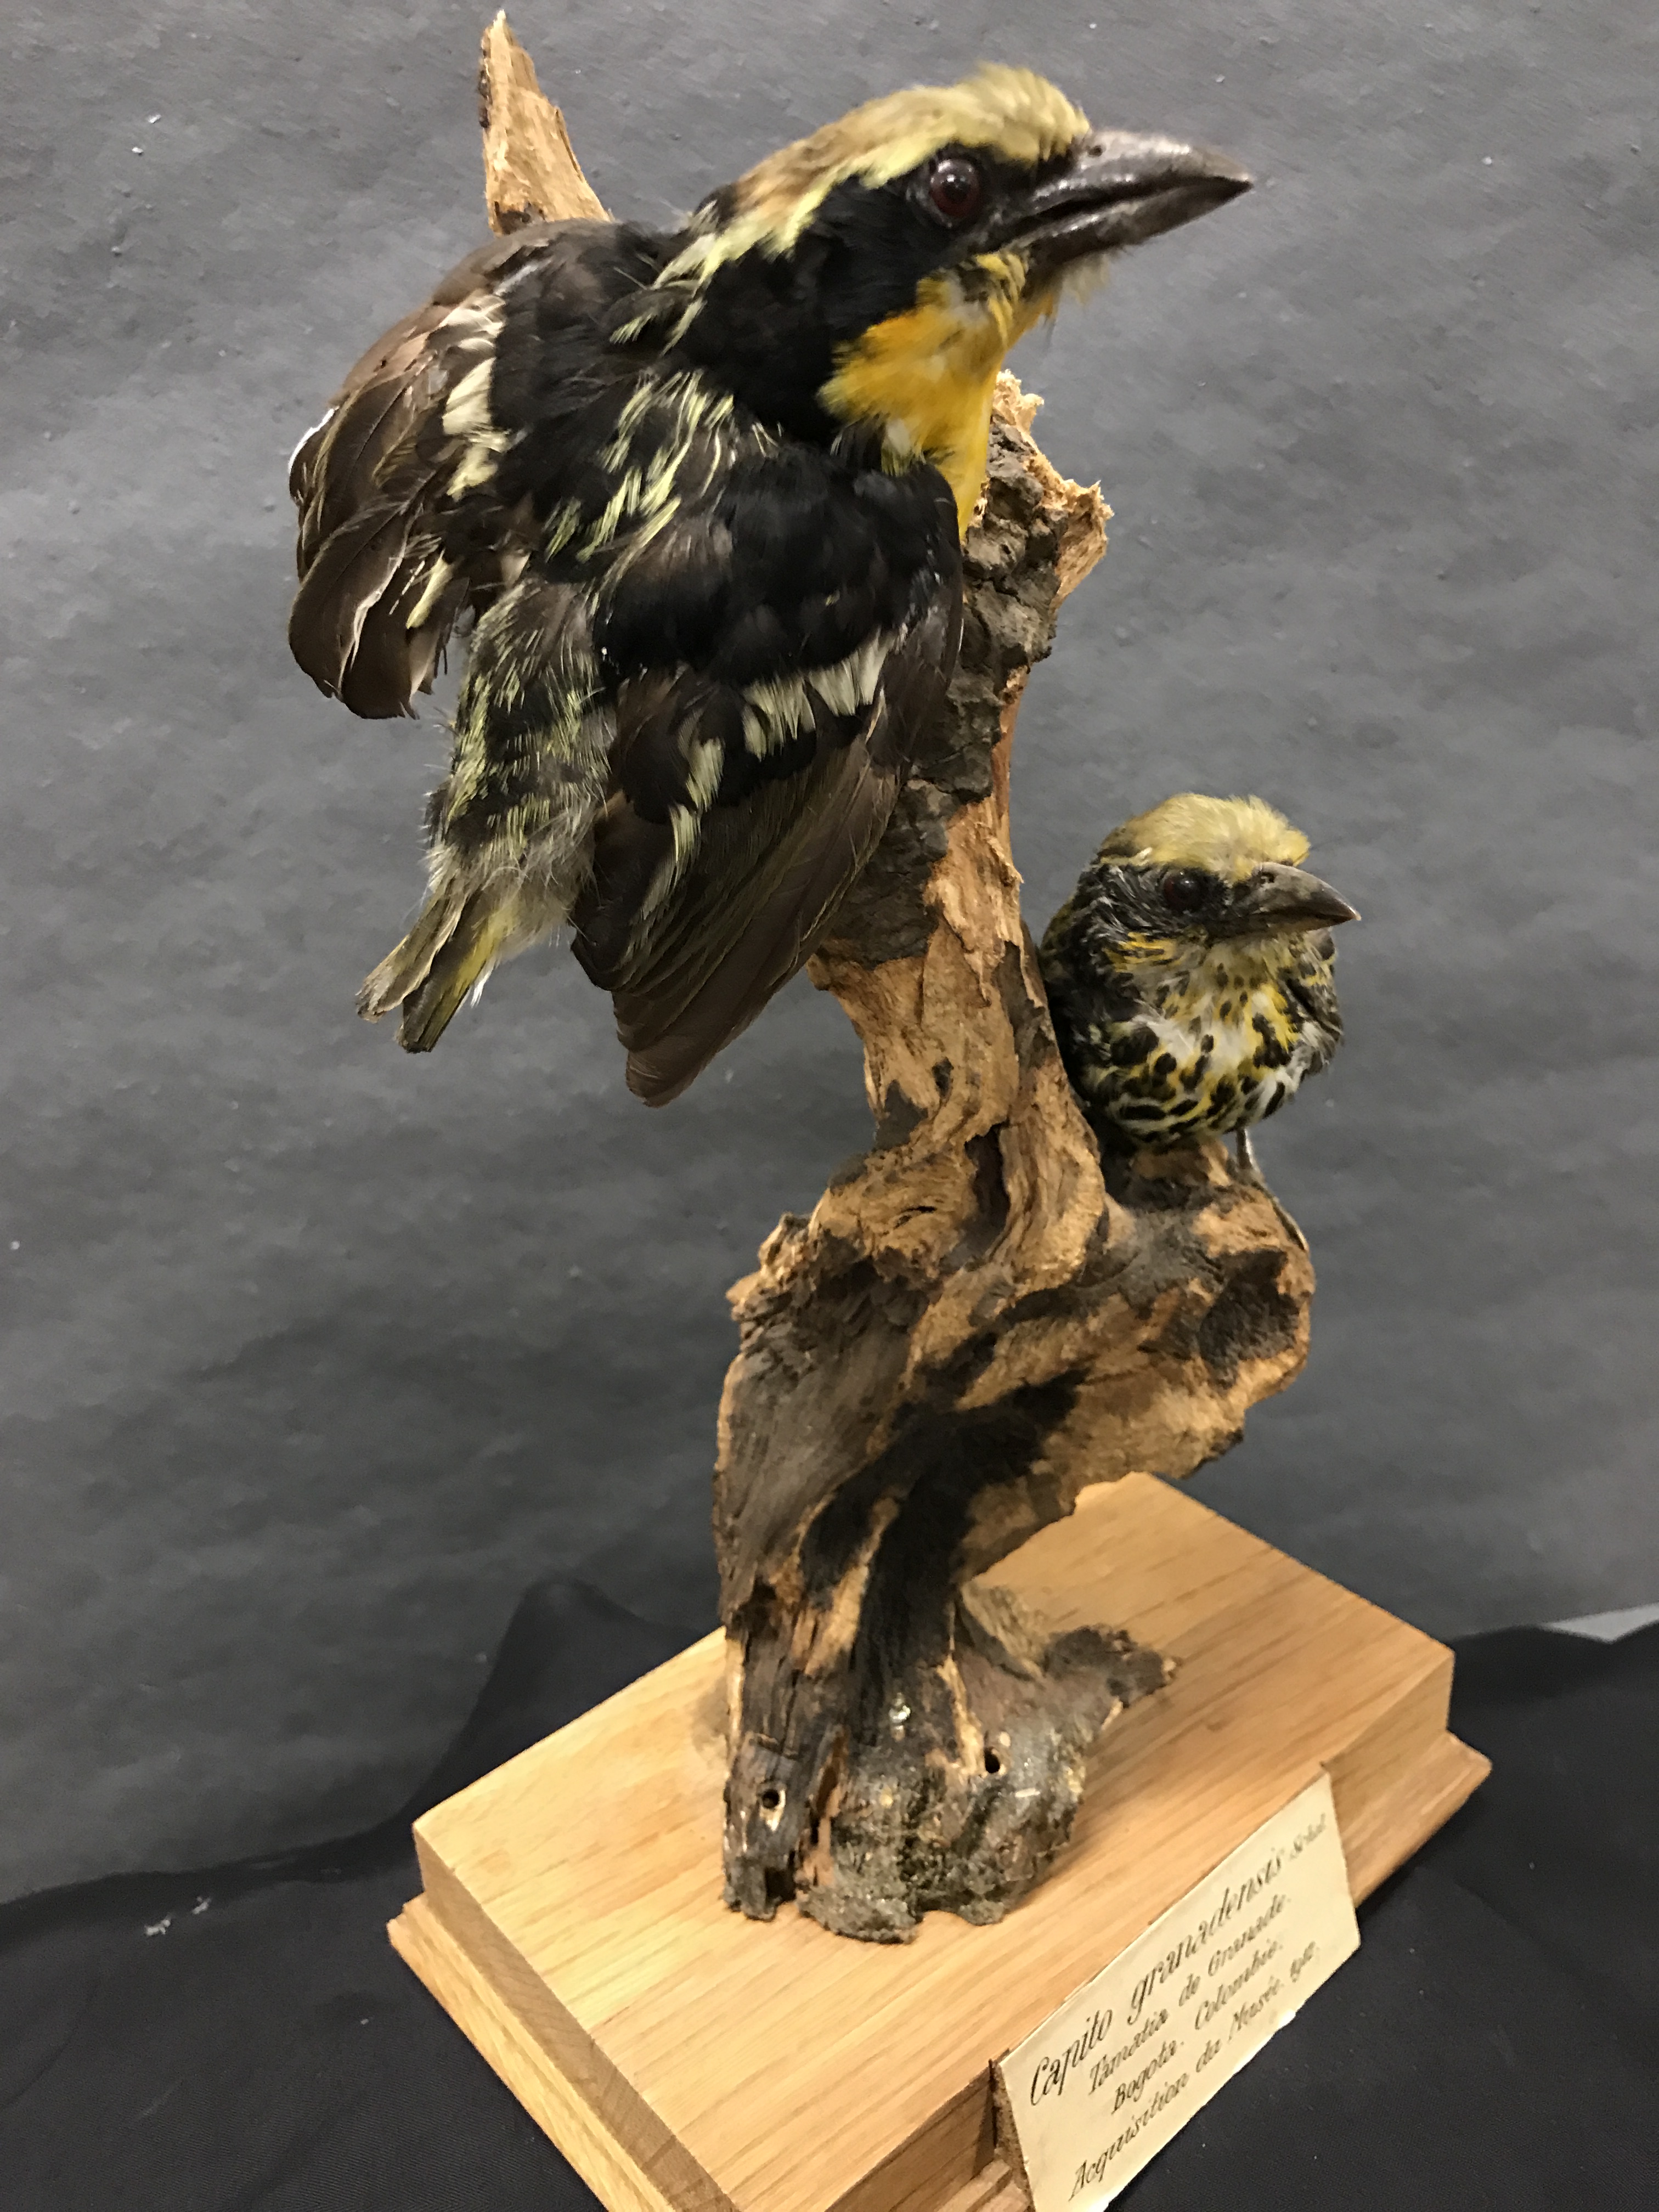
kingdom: Animalia
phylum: Chordata
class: Aves
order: Piciformes
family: Capitonidae
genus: Capito
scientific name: Capito niger
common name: Black-spotted barbet
